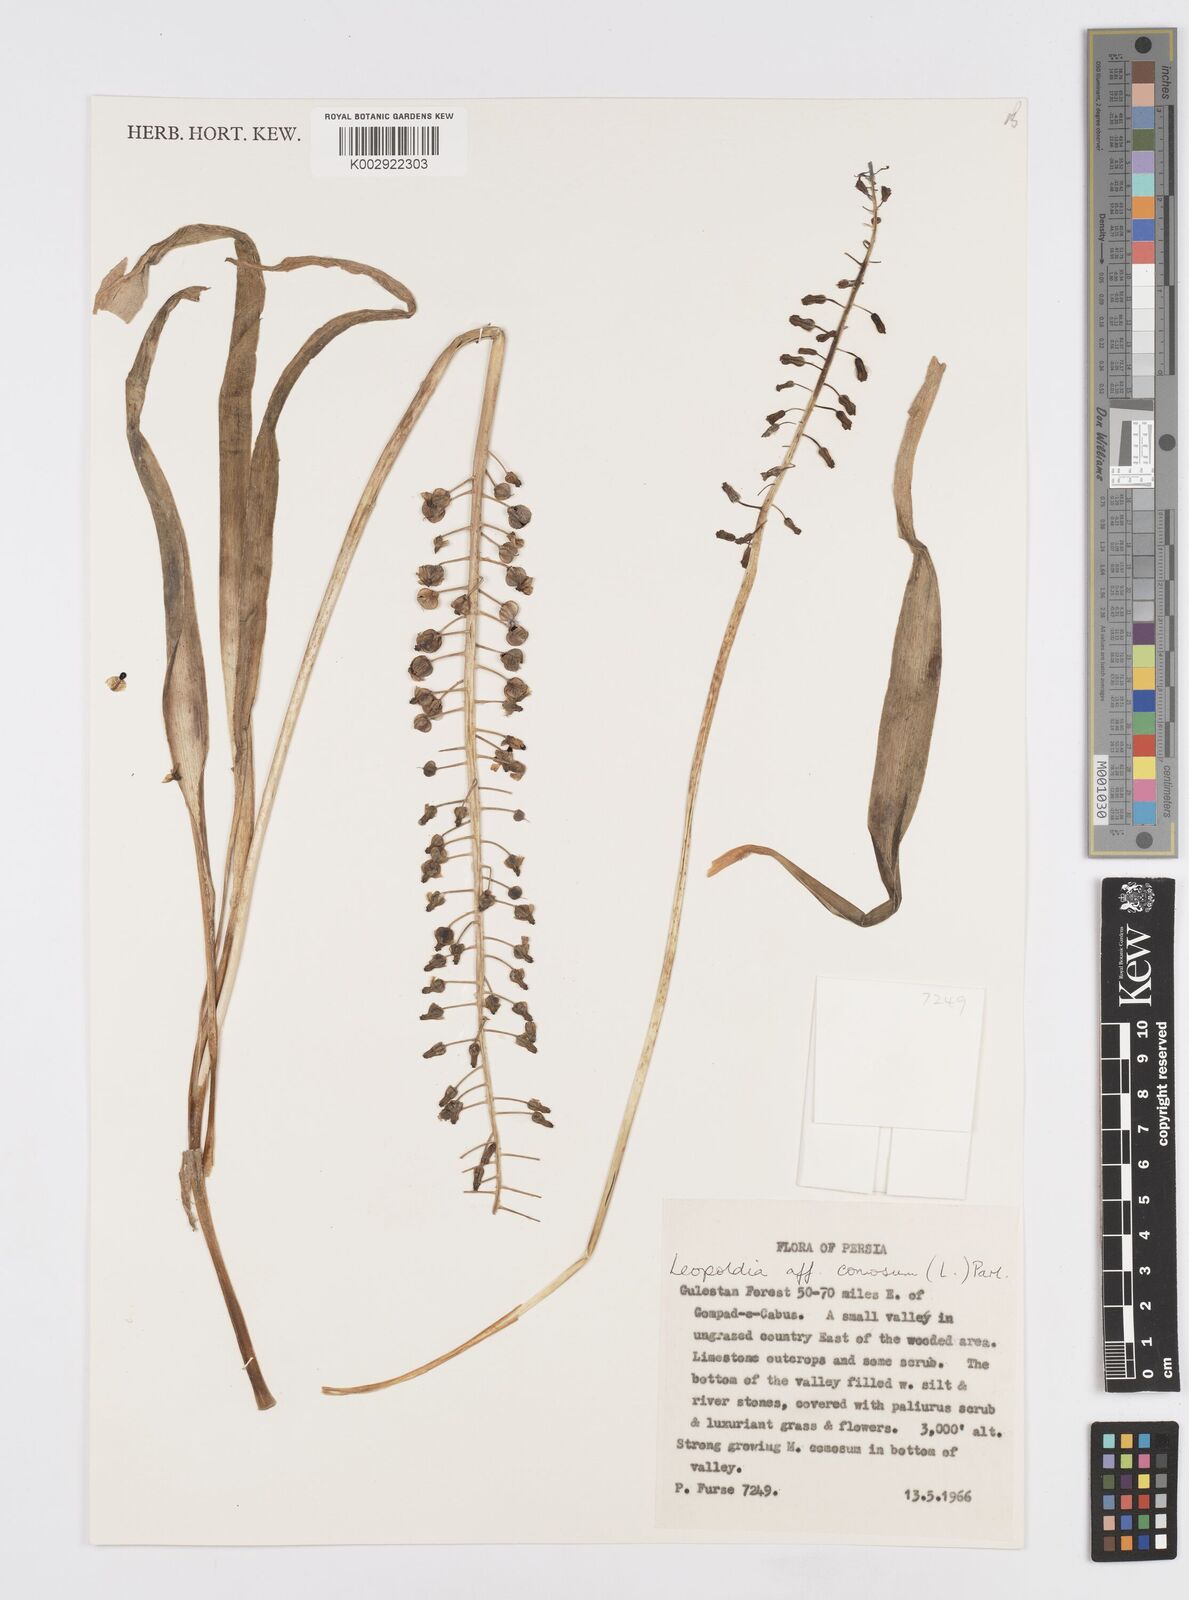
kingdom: Plantae
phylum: Tracheophyta
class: Liliopsida
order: Asparagales
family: Asparagaceae
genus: Muscari
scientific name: Muscari comosum
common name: Tassel hyacinth
